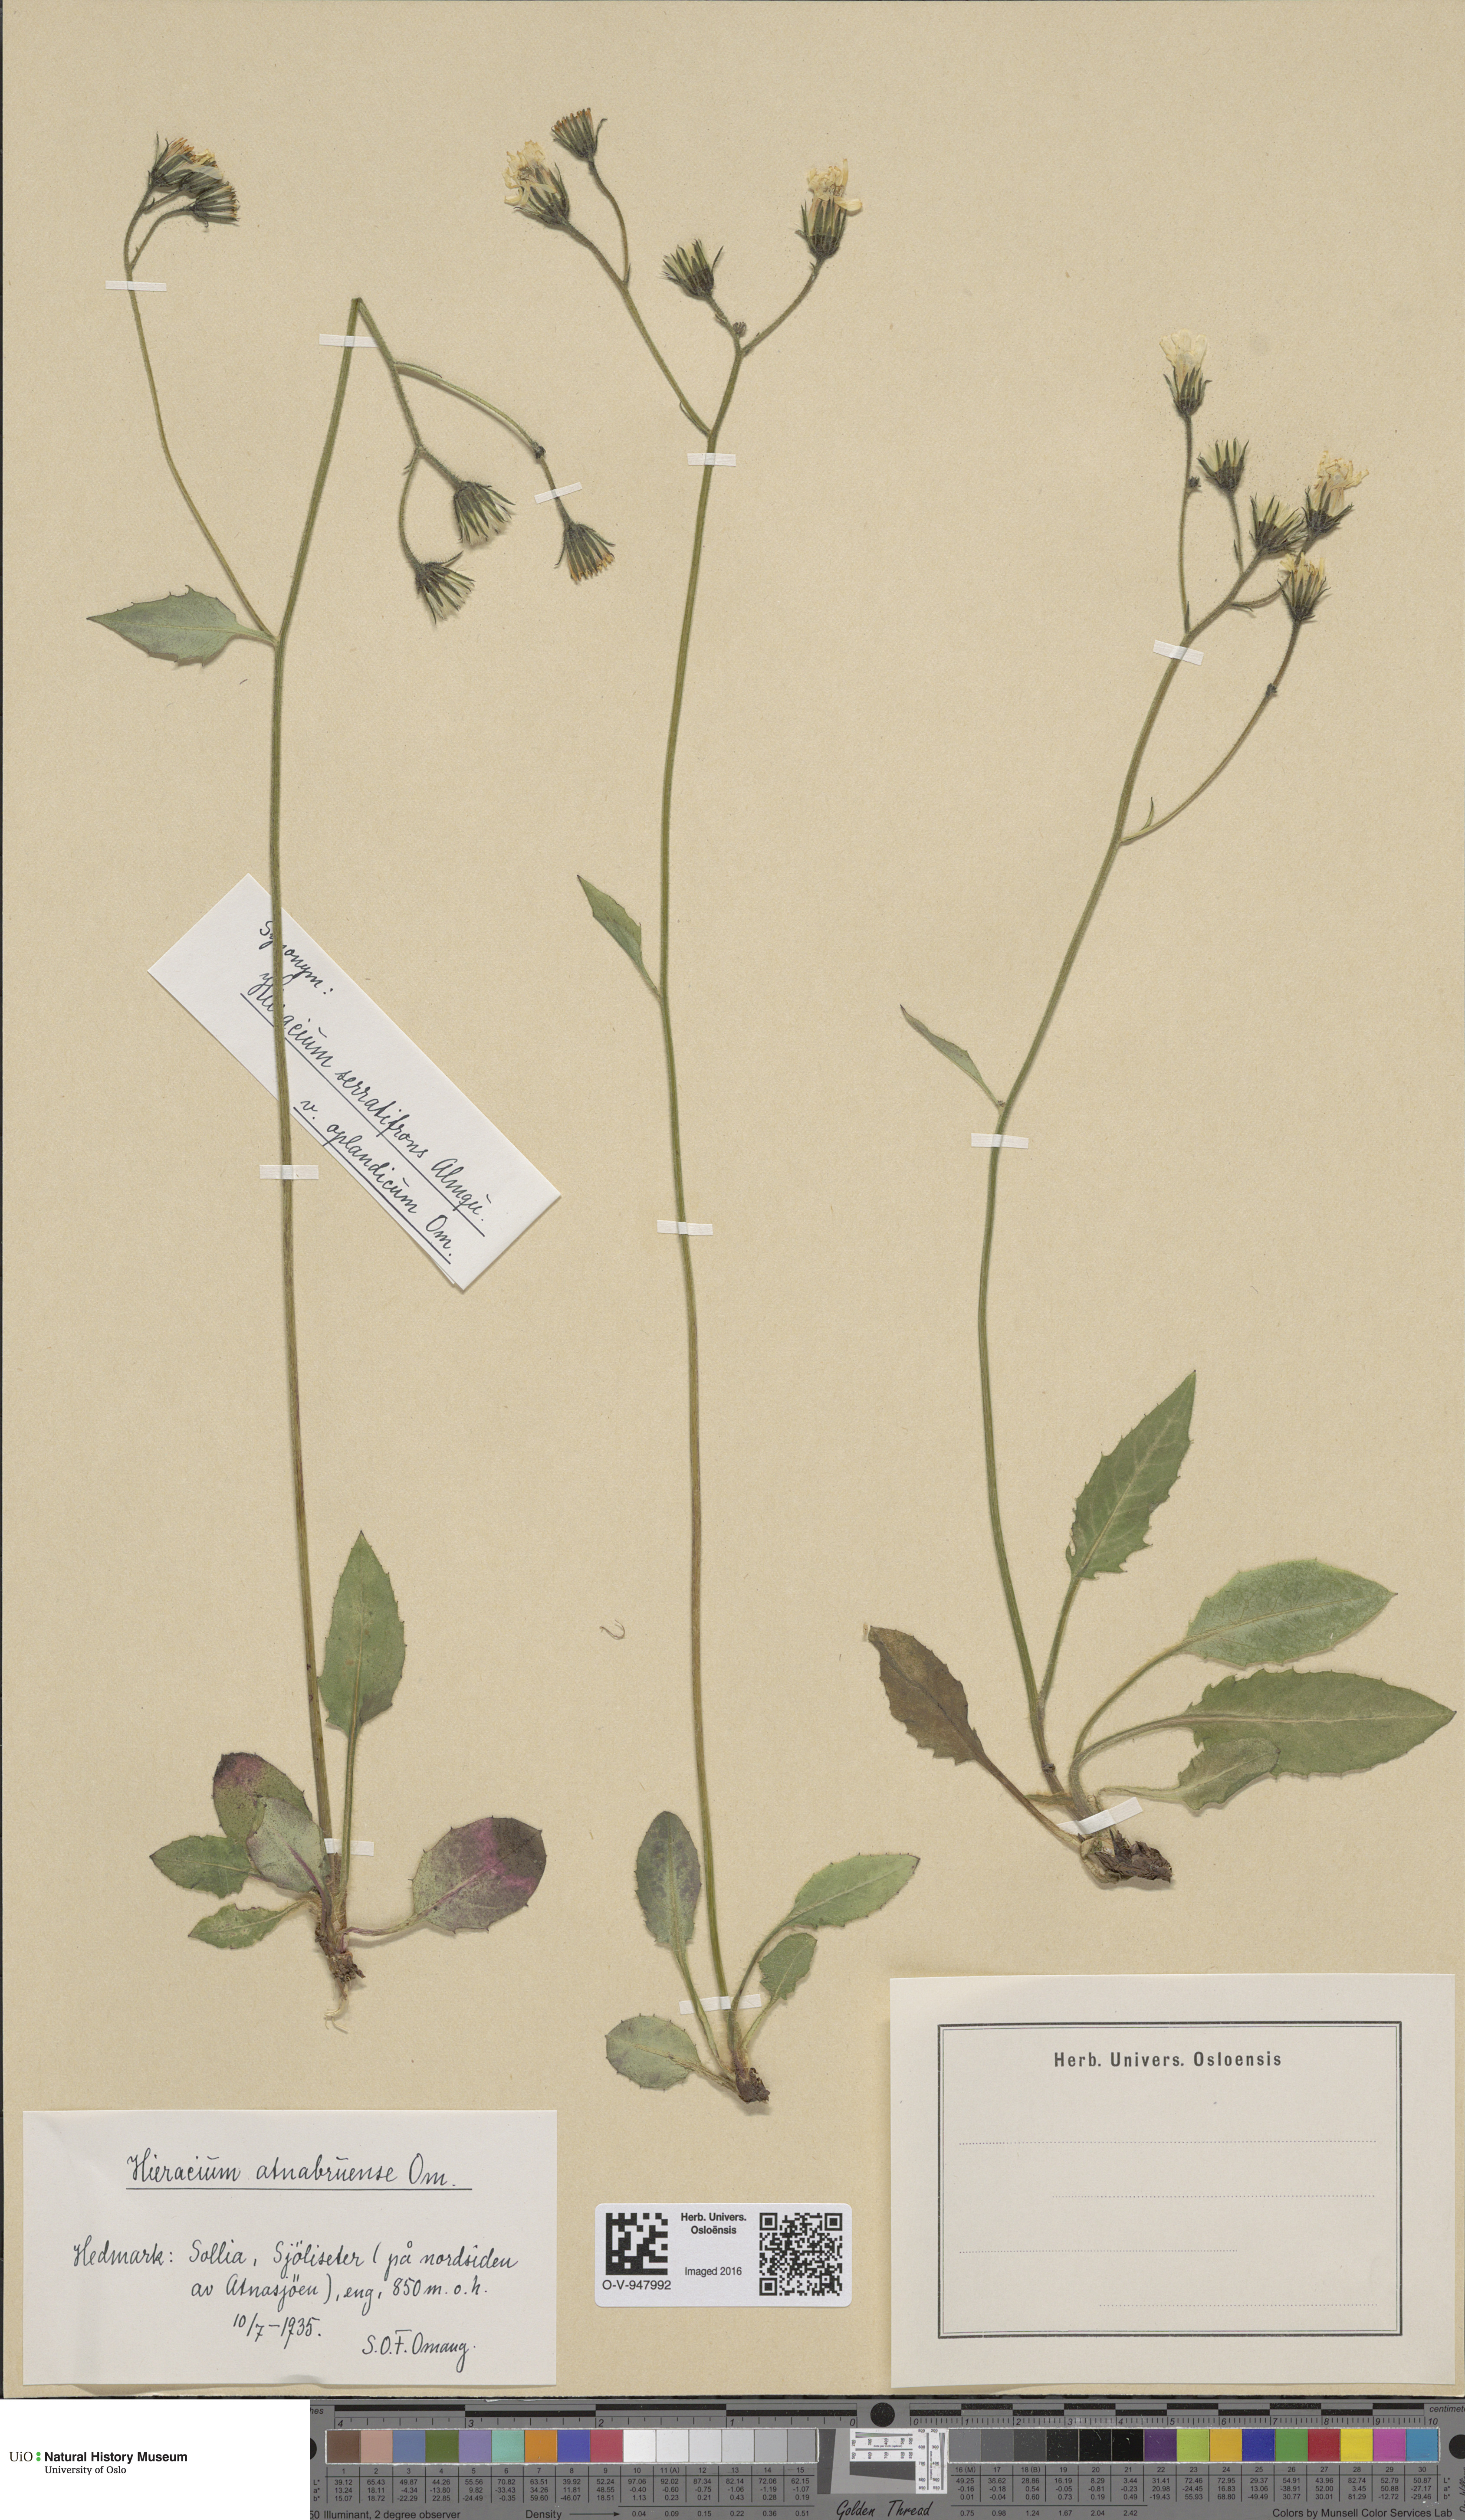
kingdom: Plantae
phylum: Tracheophyta
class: Magnoliopsida
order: Asterales
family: Asteraceae
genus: Hieracium
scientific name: Hieracium
